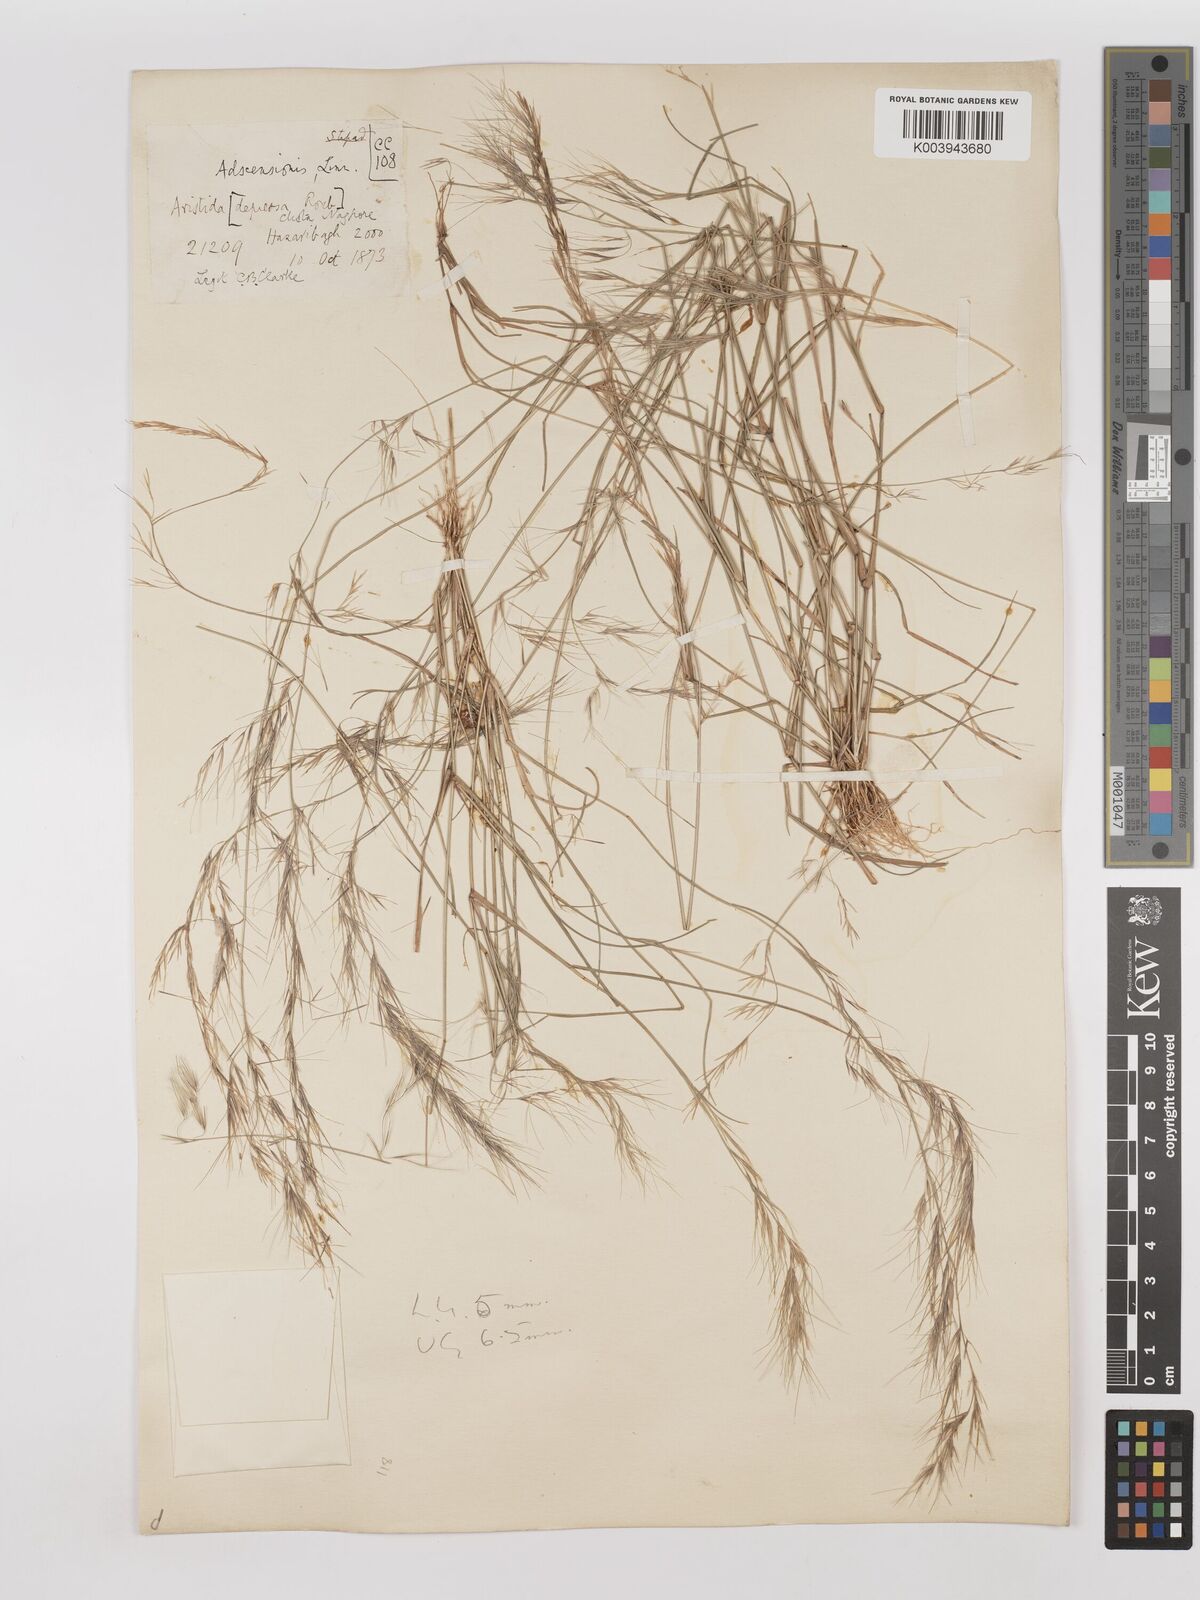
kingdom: Plantae
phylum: Tracheophyta
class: Liliopsida
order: Poales
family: Poaceae
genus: Aristida
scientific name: Aristida adscensionis
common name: Sixweeks threeawn
